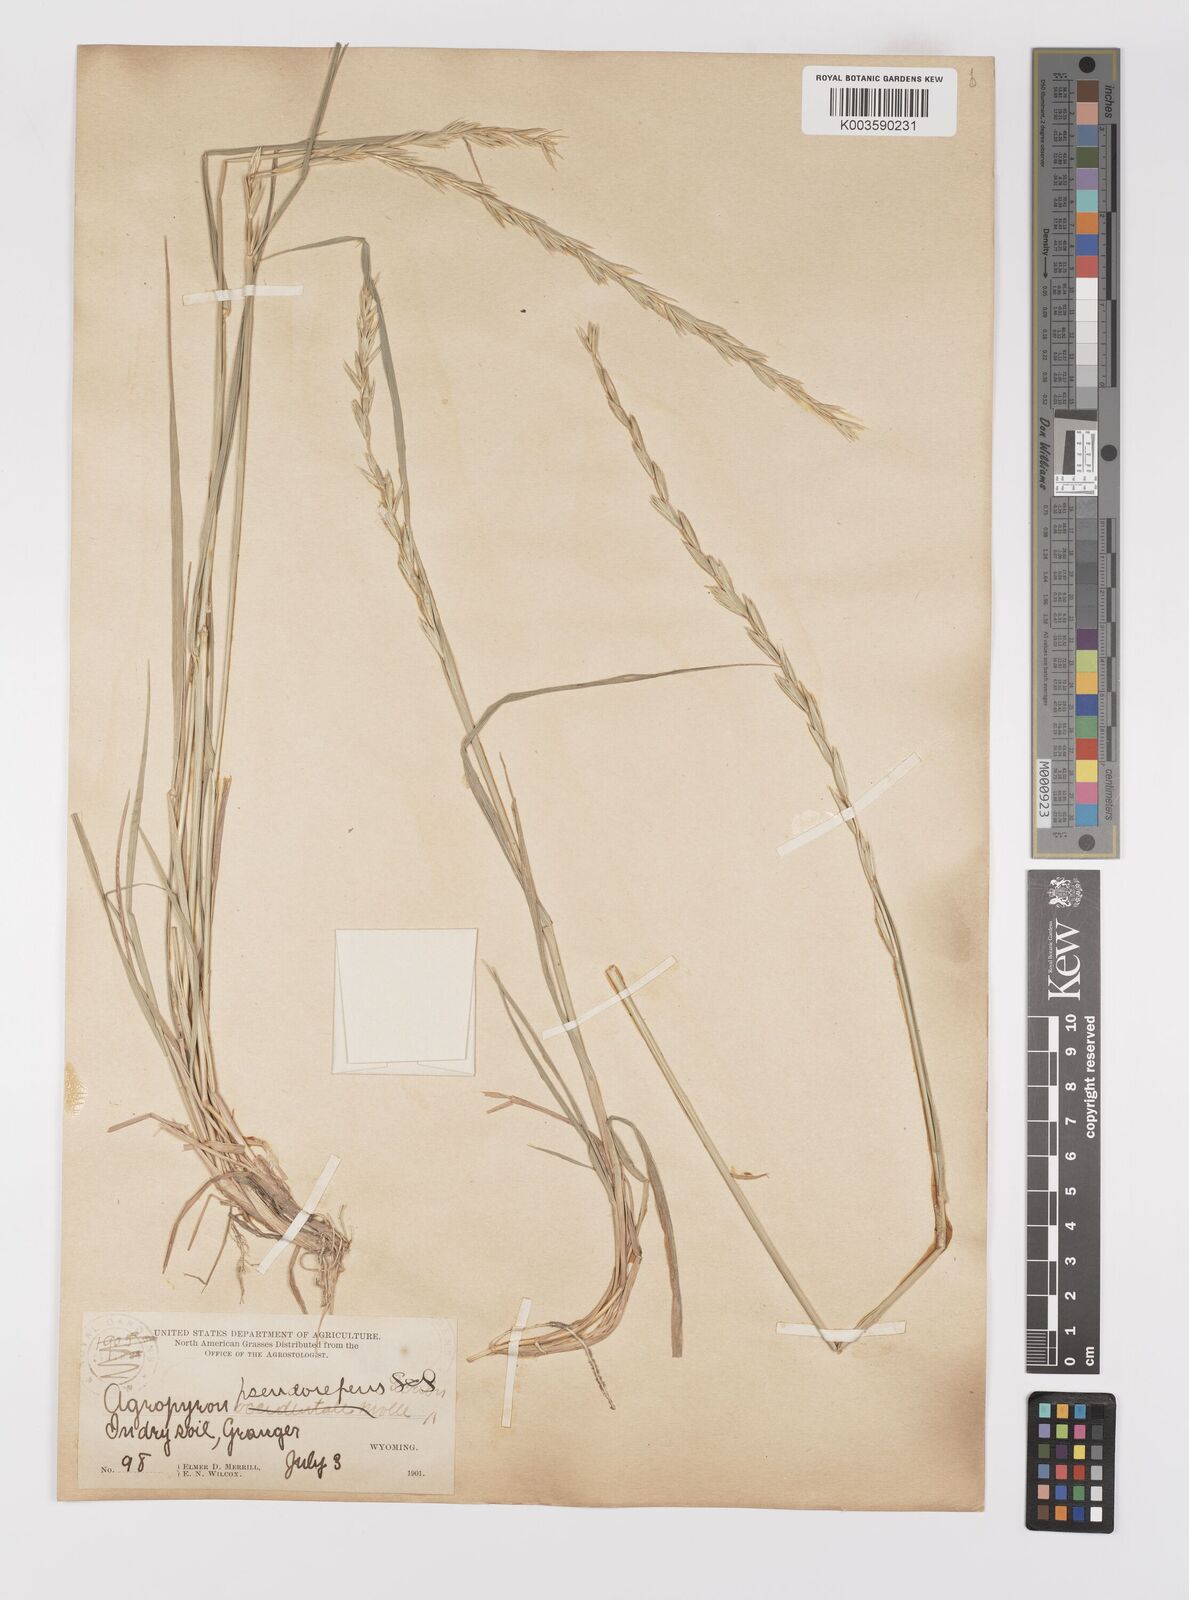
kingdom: Plantae
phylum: Tracheophyta
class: Liliopsida
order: Poales
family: Poaceae
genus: Elymus
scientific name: Elymus violaceus
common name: Arctic wheatgrass
